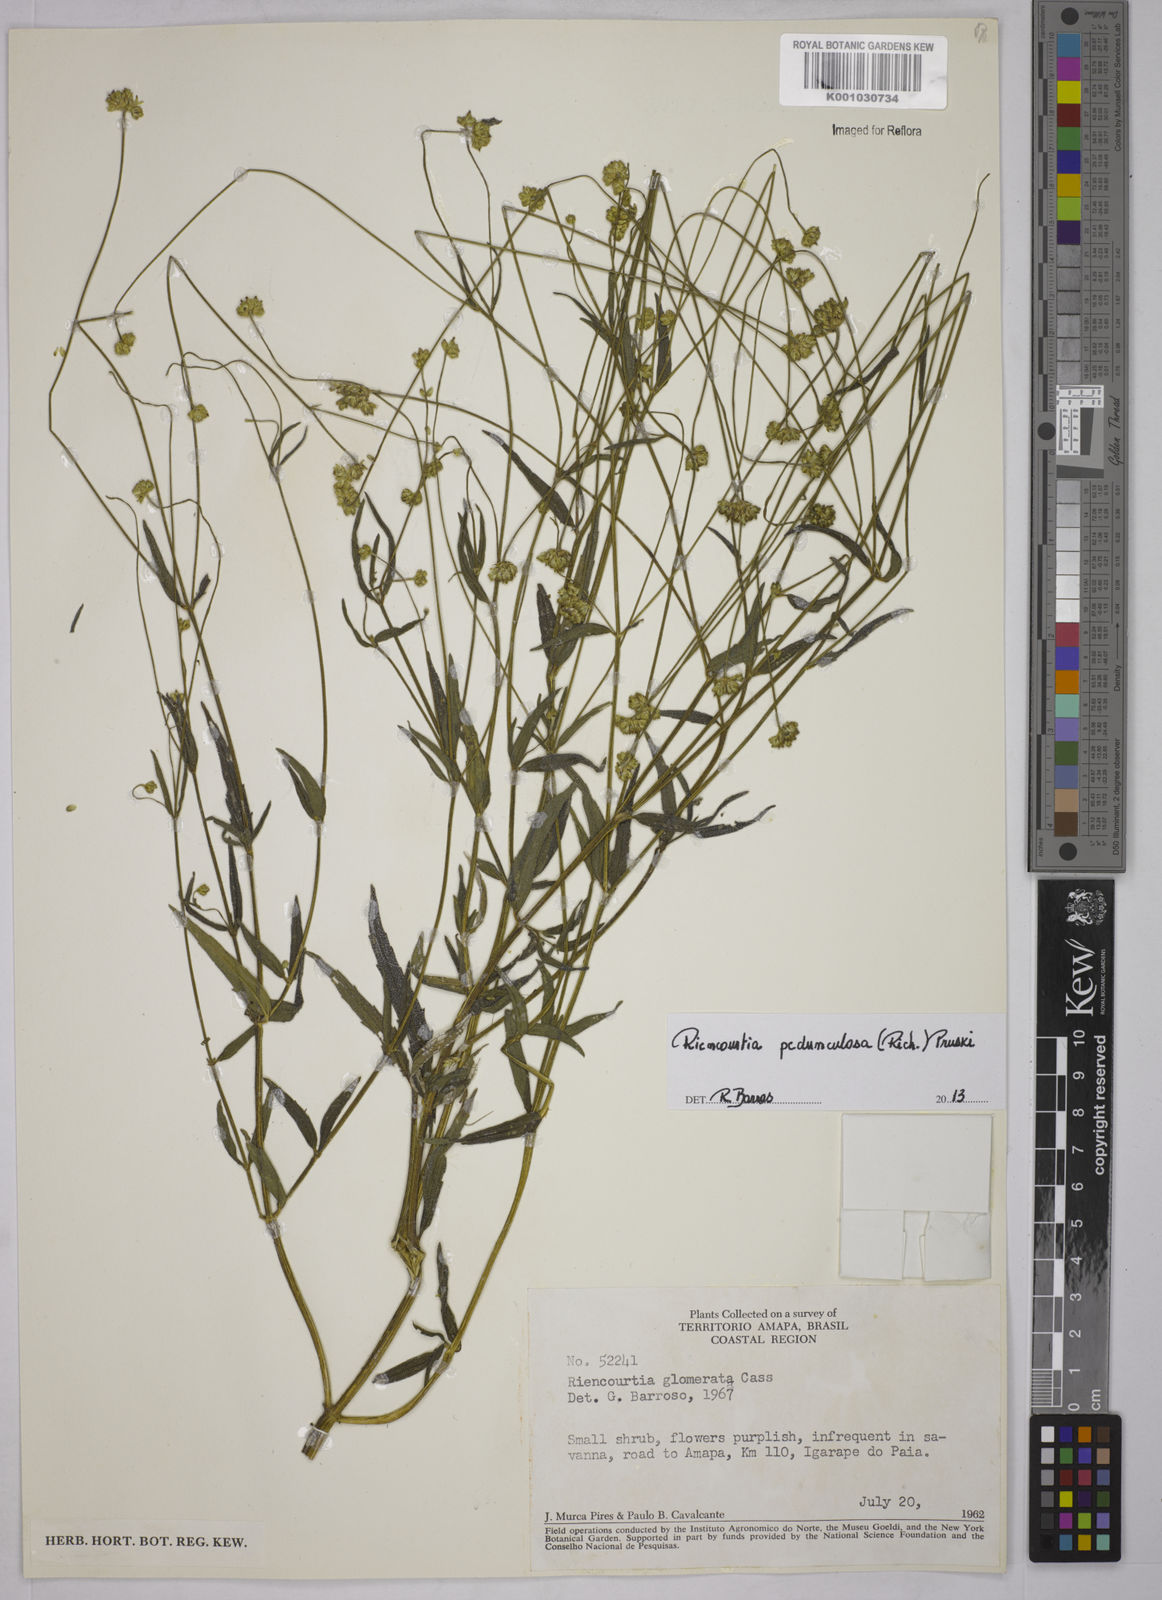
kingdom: Plantae
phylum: Tracheophyta
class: Magnoliopsida
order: Asterales
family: Asteraceae
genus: Riencourtia
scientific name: Riencourtia pedunculosa
